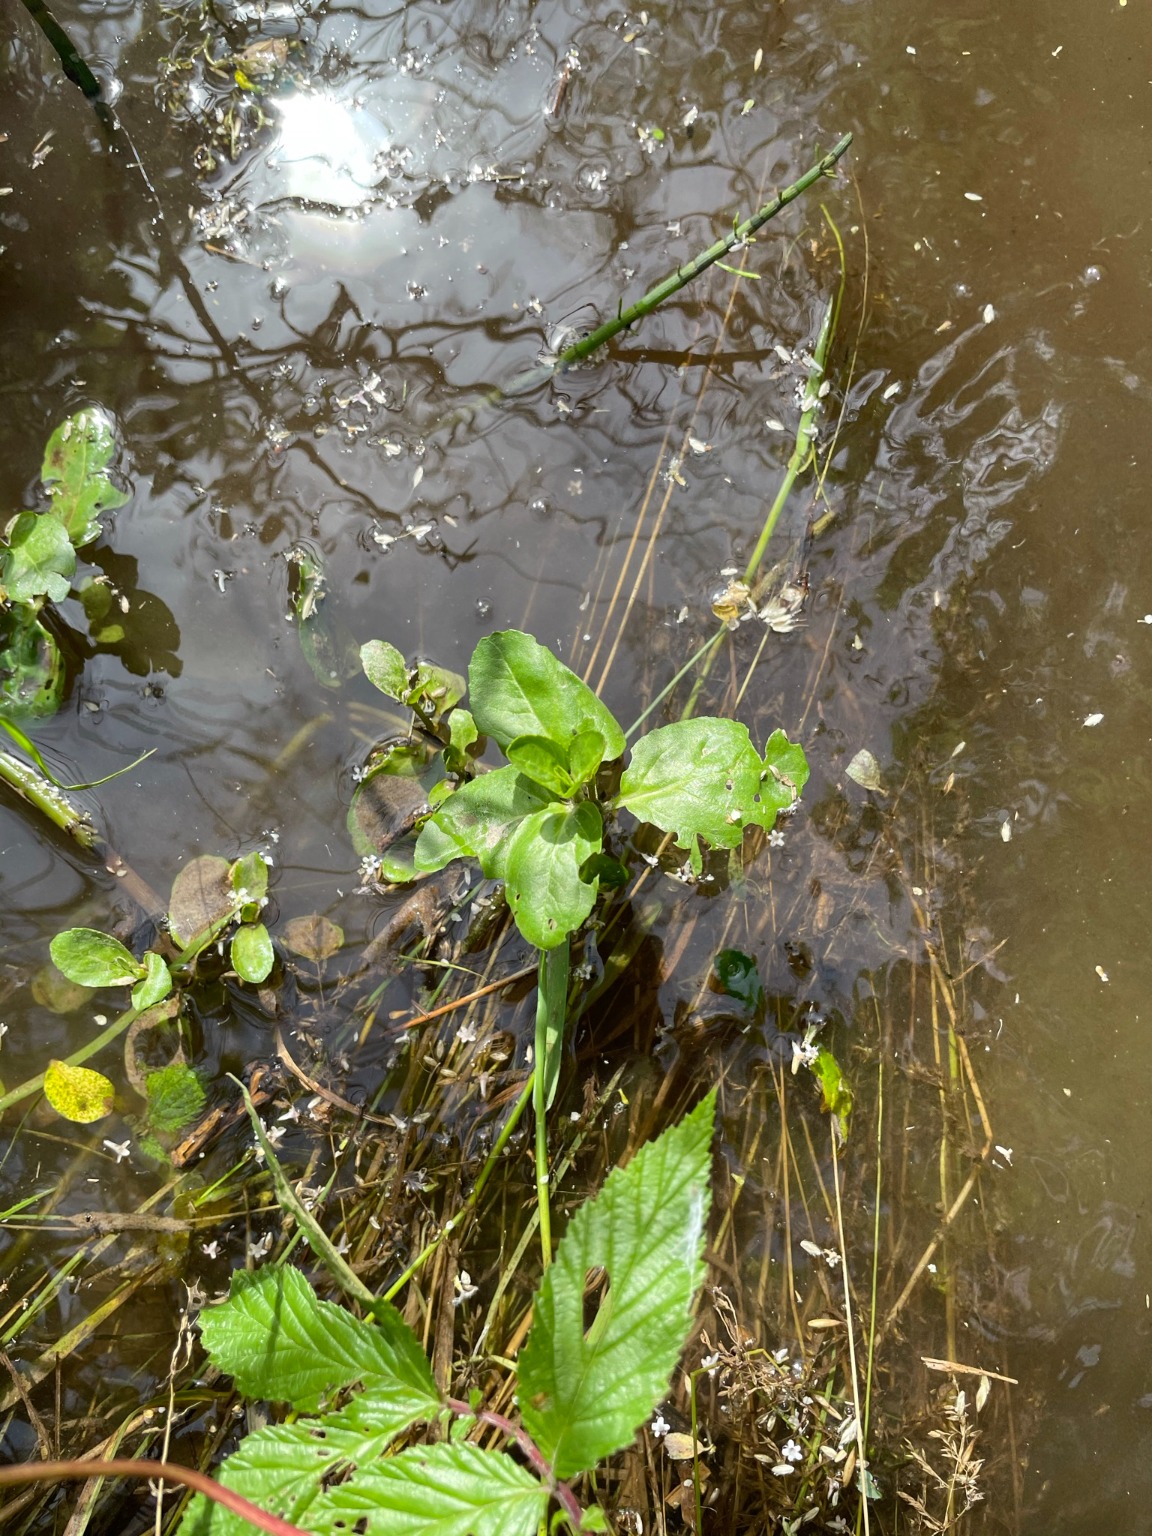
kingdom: Plantae
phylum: Tracheophyta
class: Magnoliopsida
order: Lamiales
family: Plantaginaceae
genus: Veronica
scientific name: Veronica beccabunga
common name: Tykbladet ærenpris
